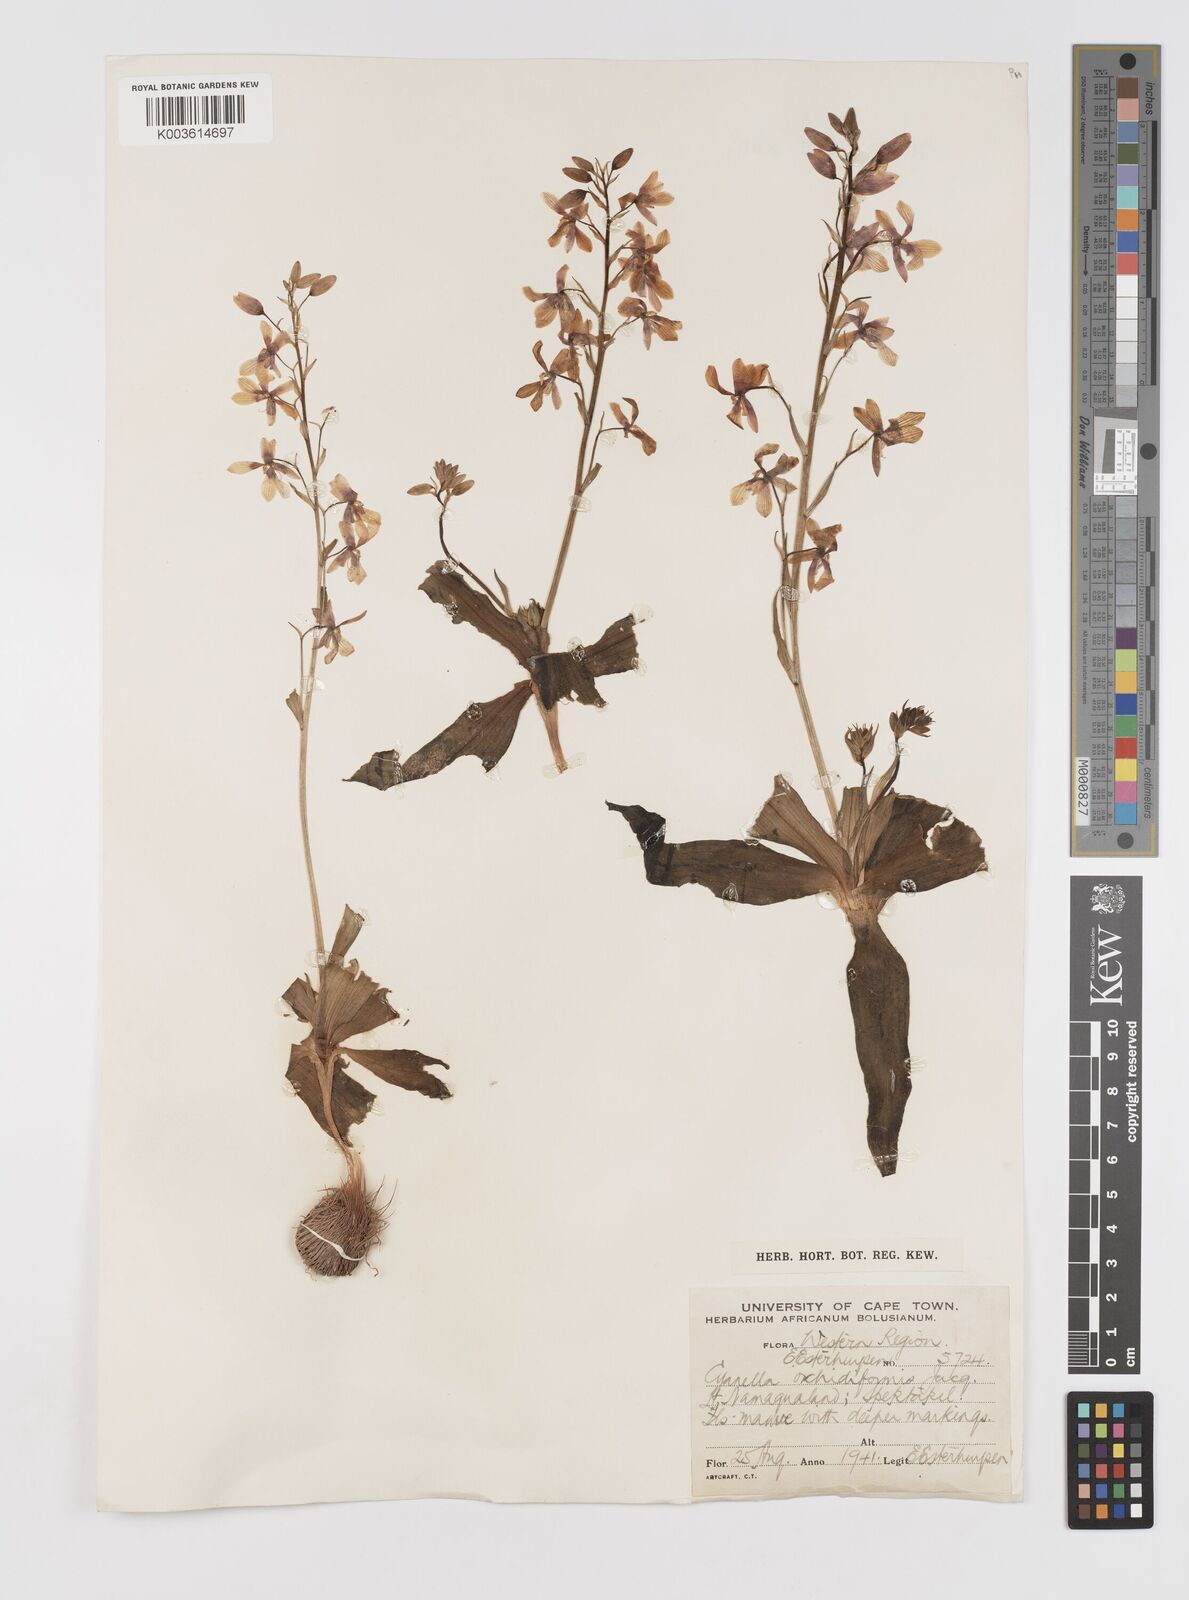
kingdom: Plantae
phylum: Tracheophyta
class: Liliopsida
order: Asparagales
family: Tecophilaeaceae
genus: Cyanella
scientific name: Cyanella orchidiformis
